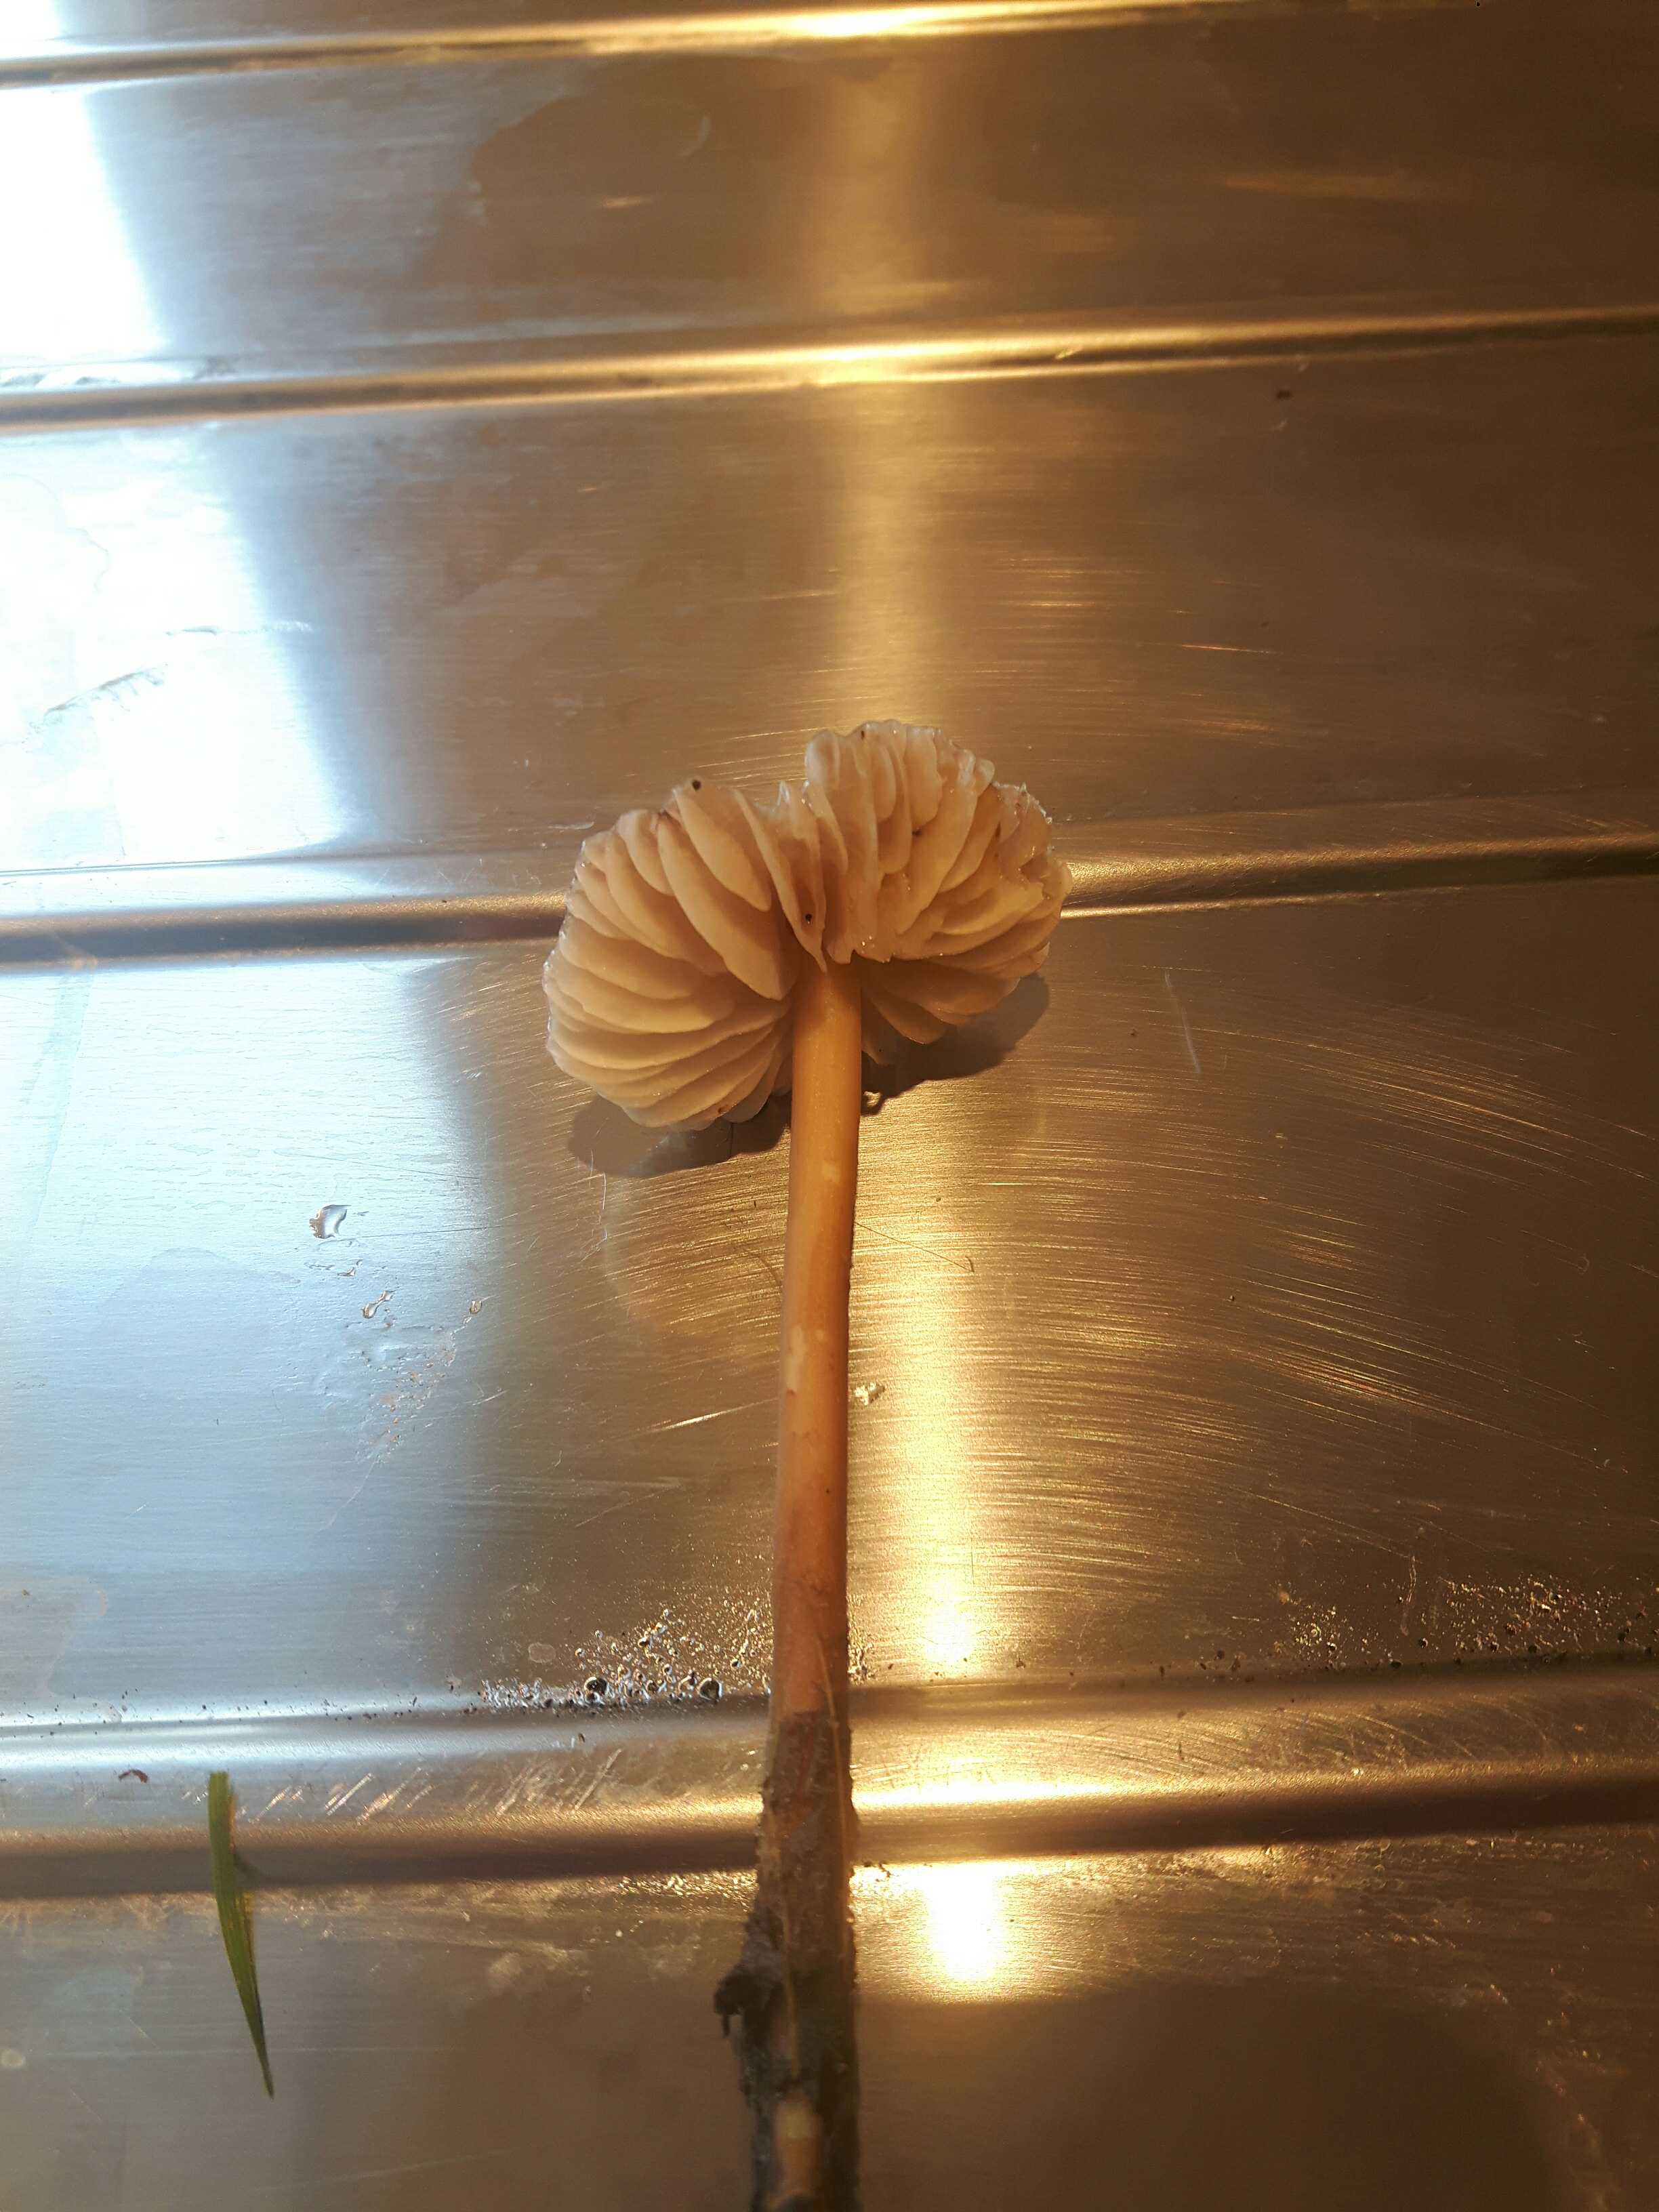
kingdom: Fungi
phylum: Basidiomycota
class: Agaricomycetes
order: Agaricales
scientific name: Agaricales
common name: champignonordenen
